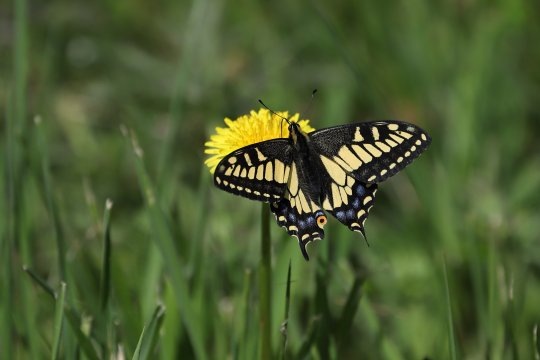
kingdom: Animalia
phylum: Arthropoda
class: Insecta
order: Lepidoptera
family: Papilionidae
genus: Papilio
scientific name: Papilio zelicaon
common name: Anise Swallowtail
